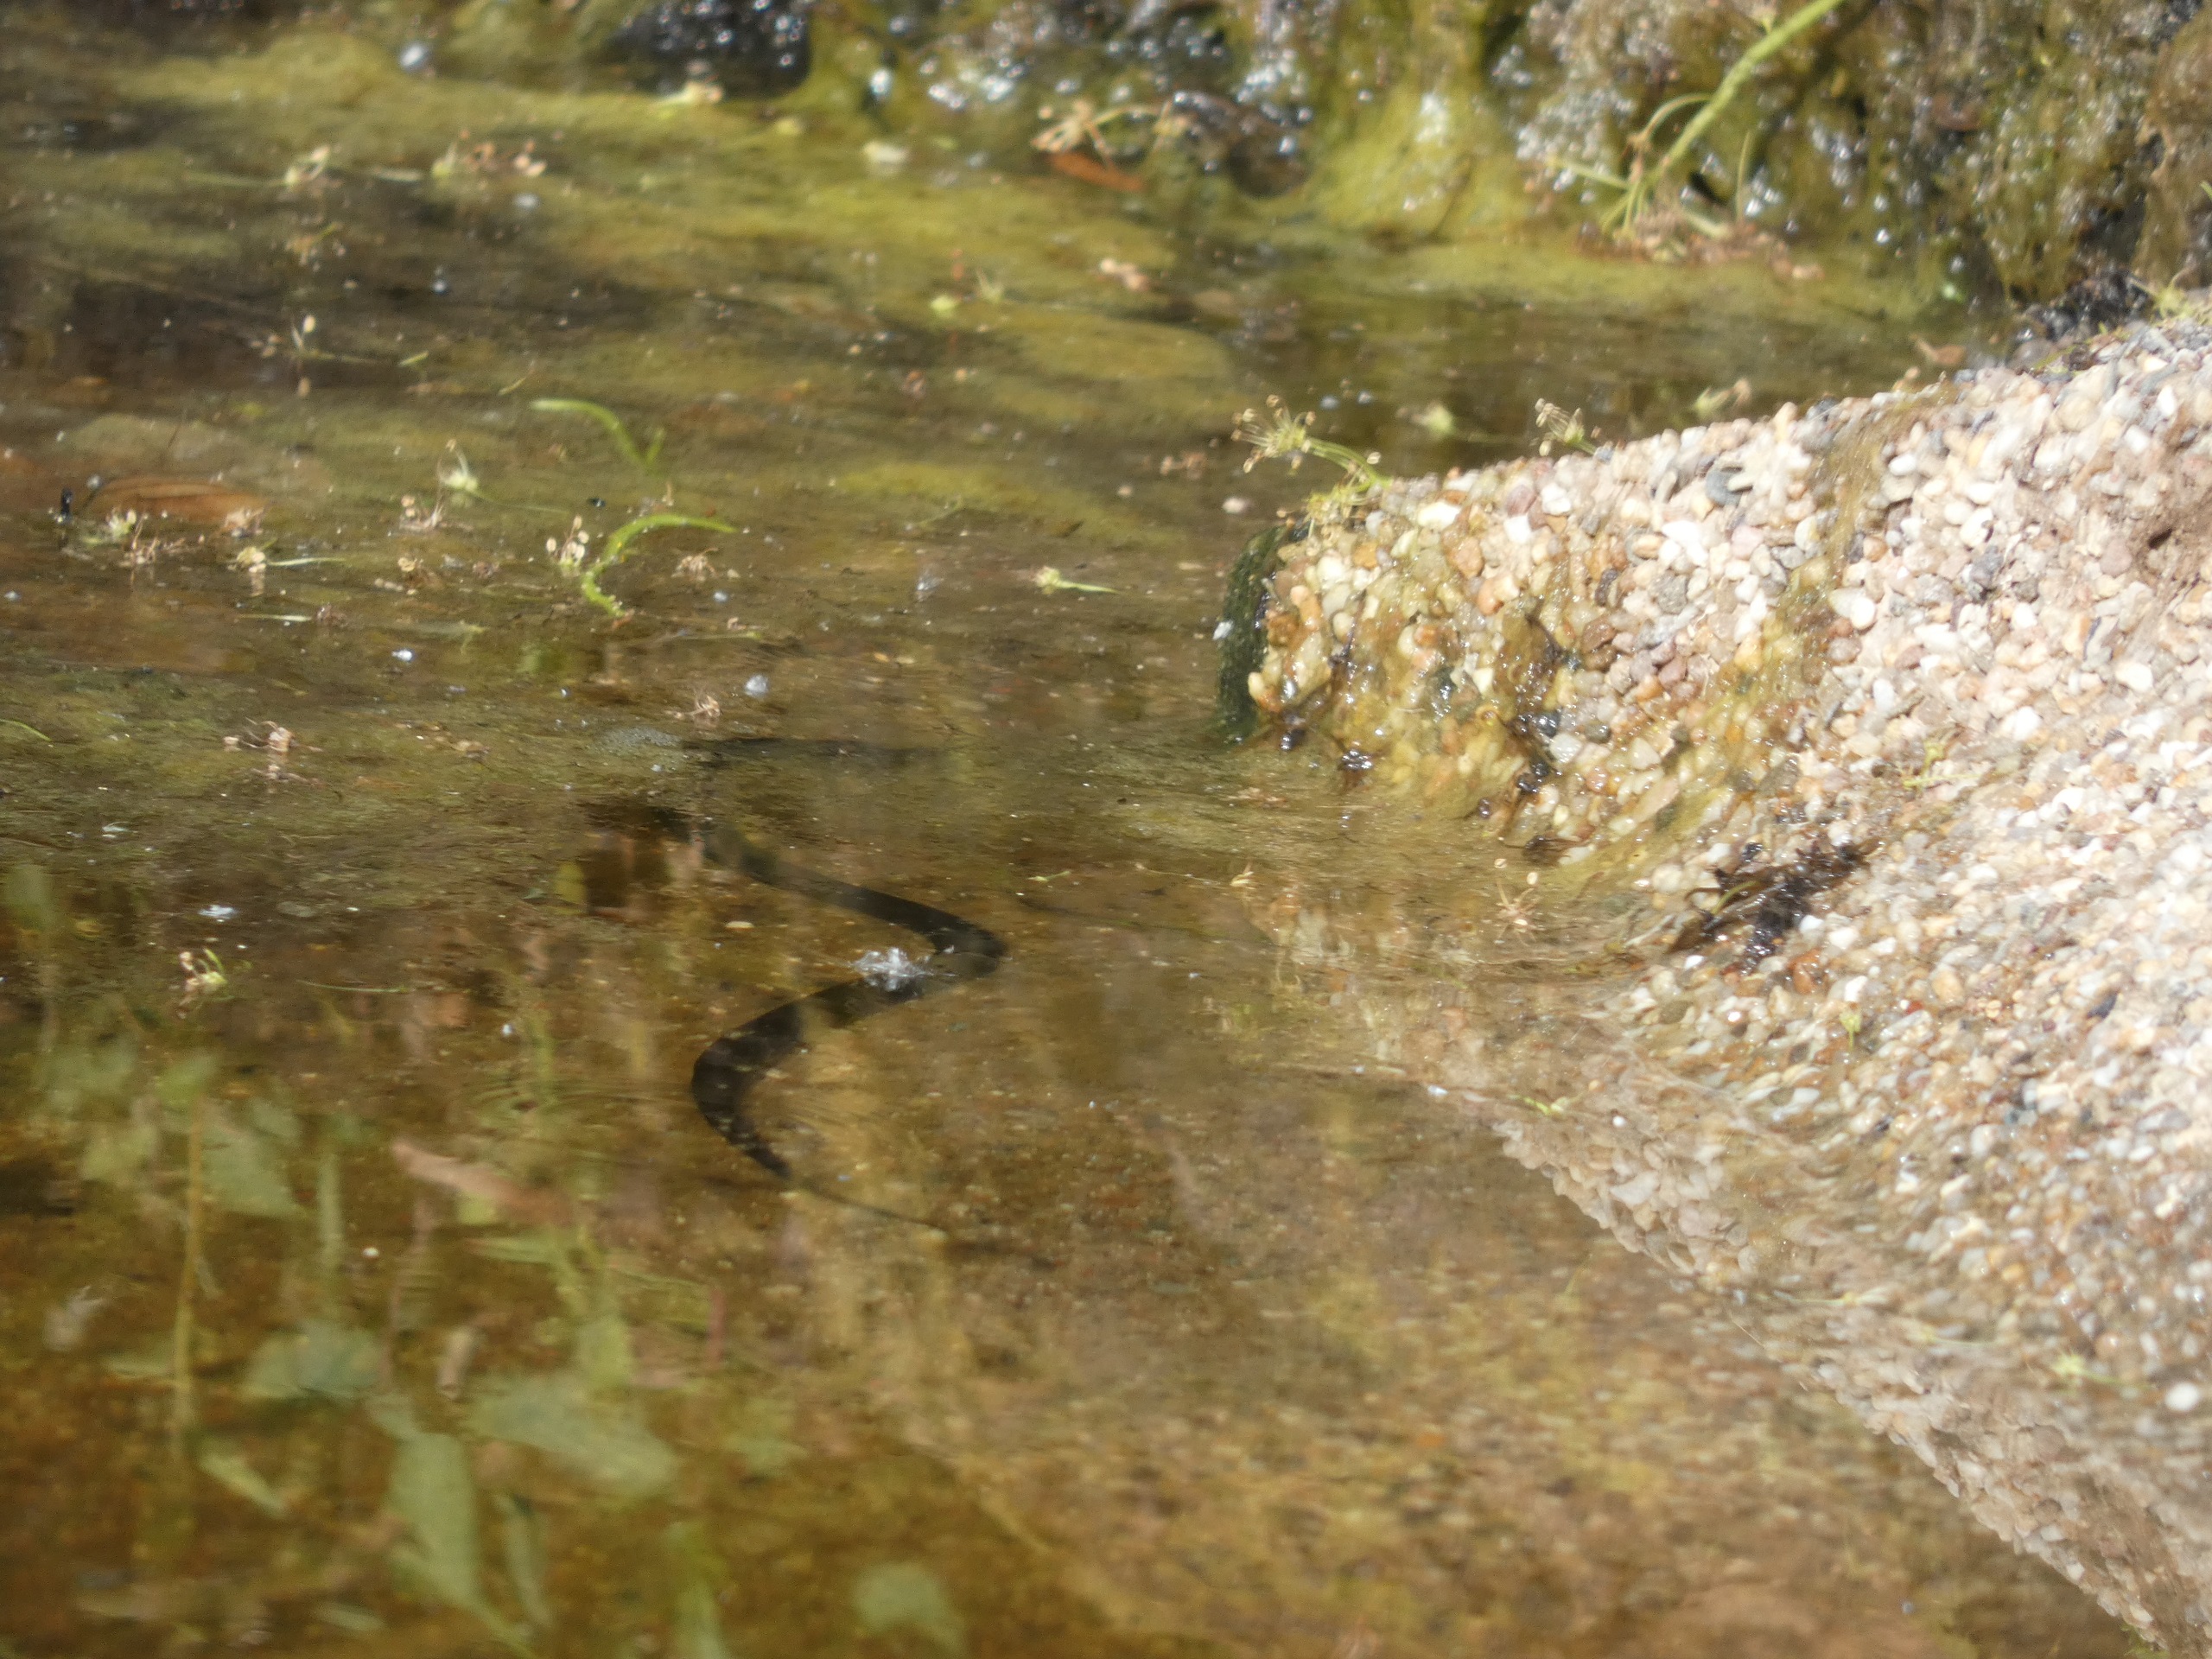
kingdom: Animalia
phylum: Chordata
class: Squamata
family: Colubridae
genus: Natrix
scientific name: Natrix natrix
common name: Snog
